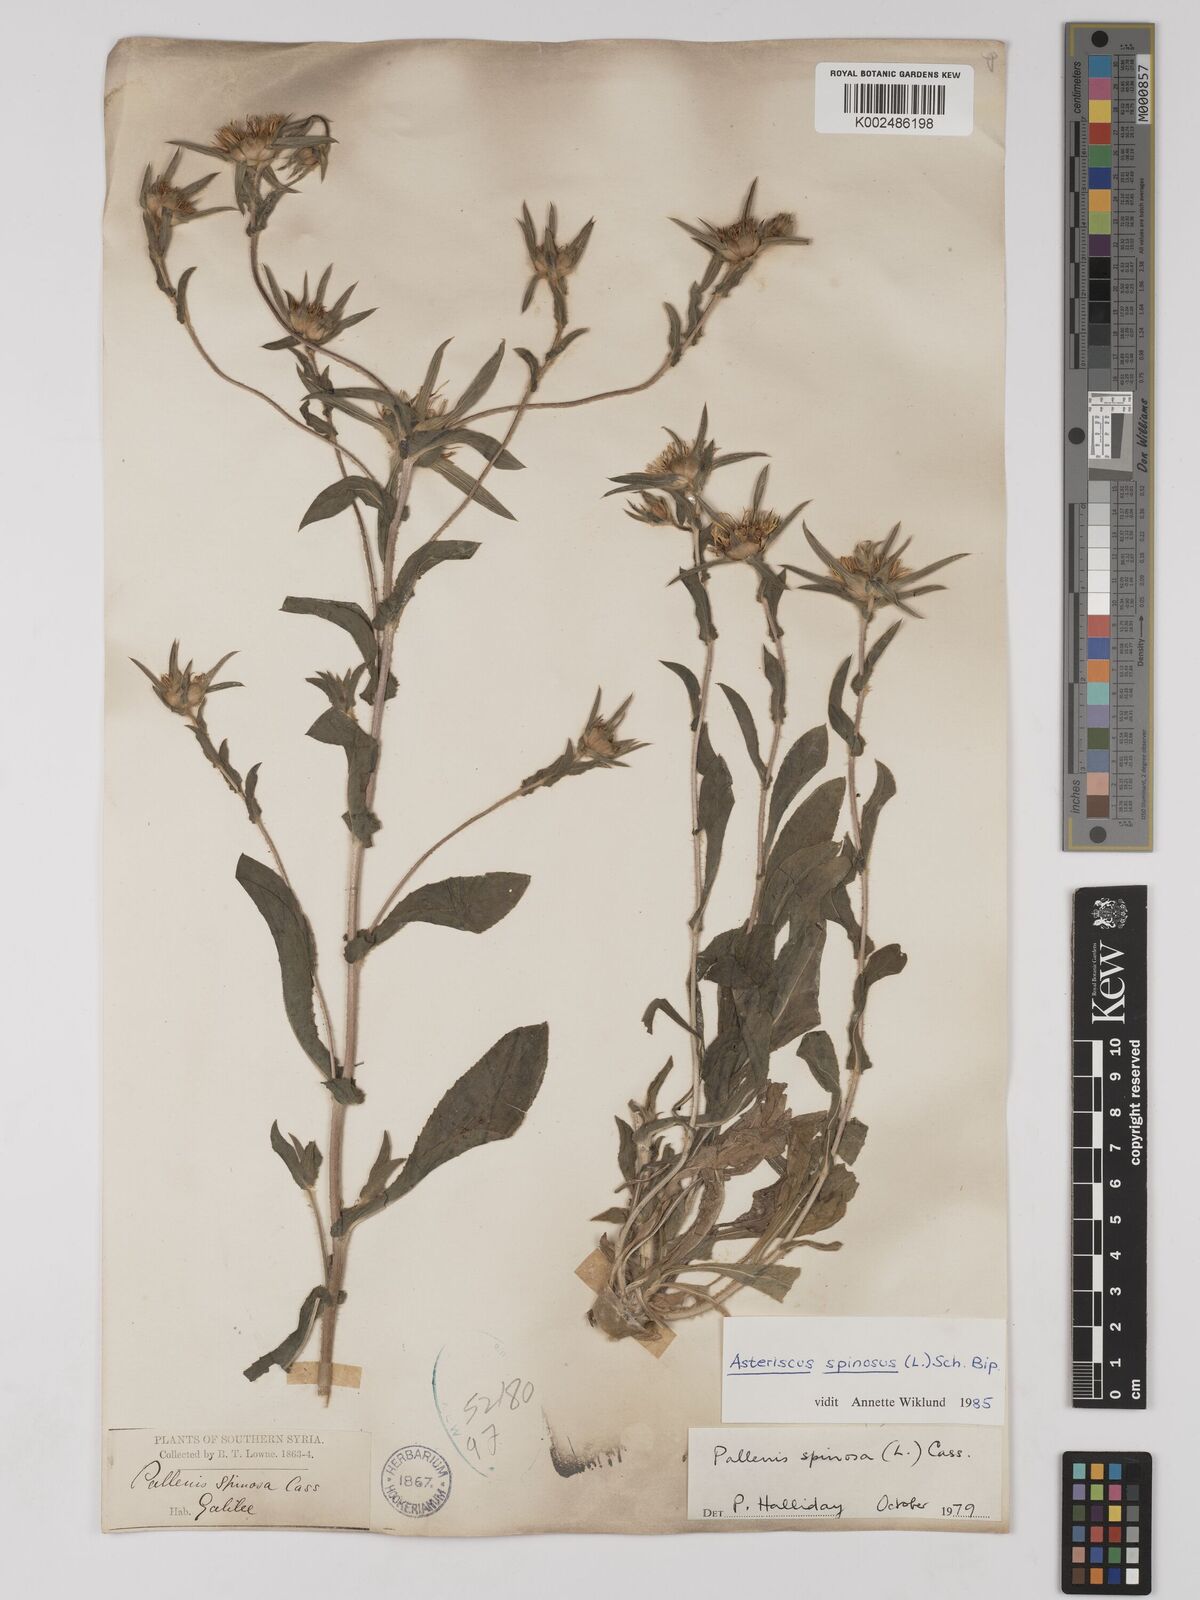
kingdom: Plantae
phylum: Tracheophyta
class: Magnoliopsida
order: Asterales
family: Asteraceae
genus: Pallenis
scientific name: Pallenis spinosa
